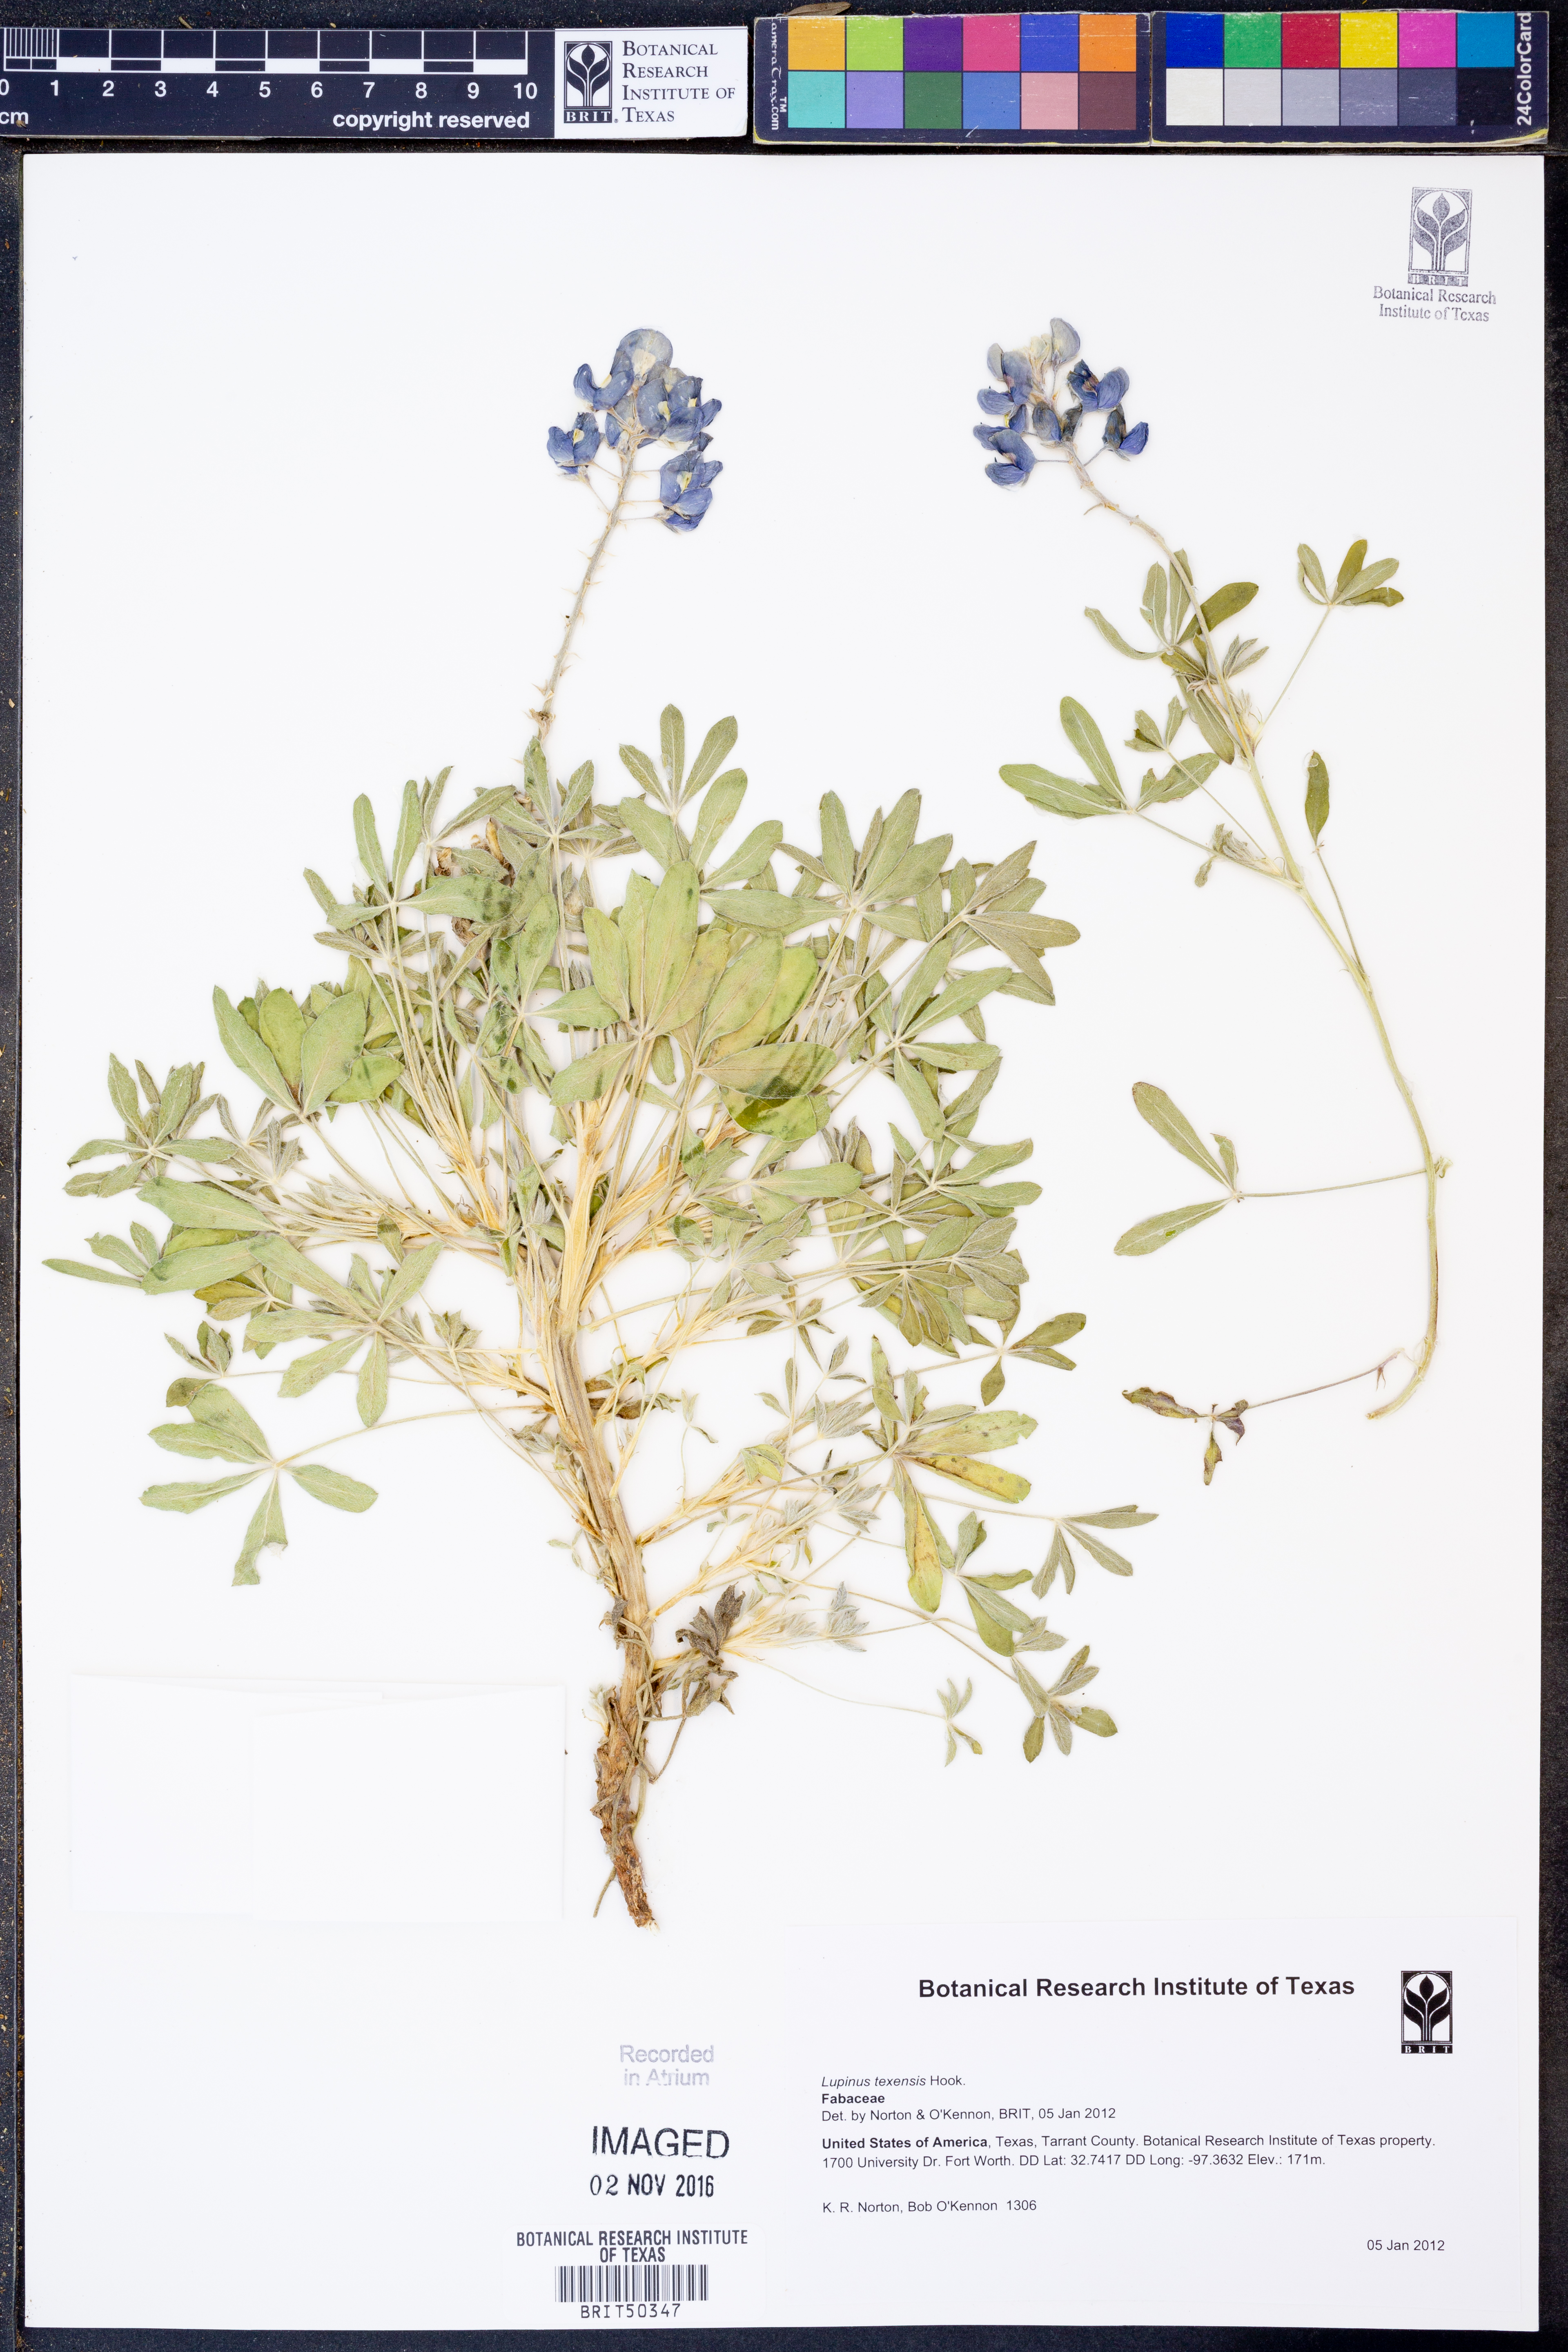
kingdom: Plantae
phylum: Tracheophyta
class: Magnoliopsida
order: Fabales
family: Fabaceae
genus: Lupinus
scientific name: Lupinus texensis
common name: Texas bluebonnet
